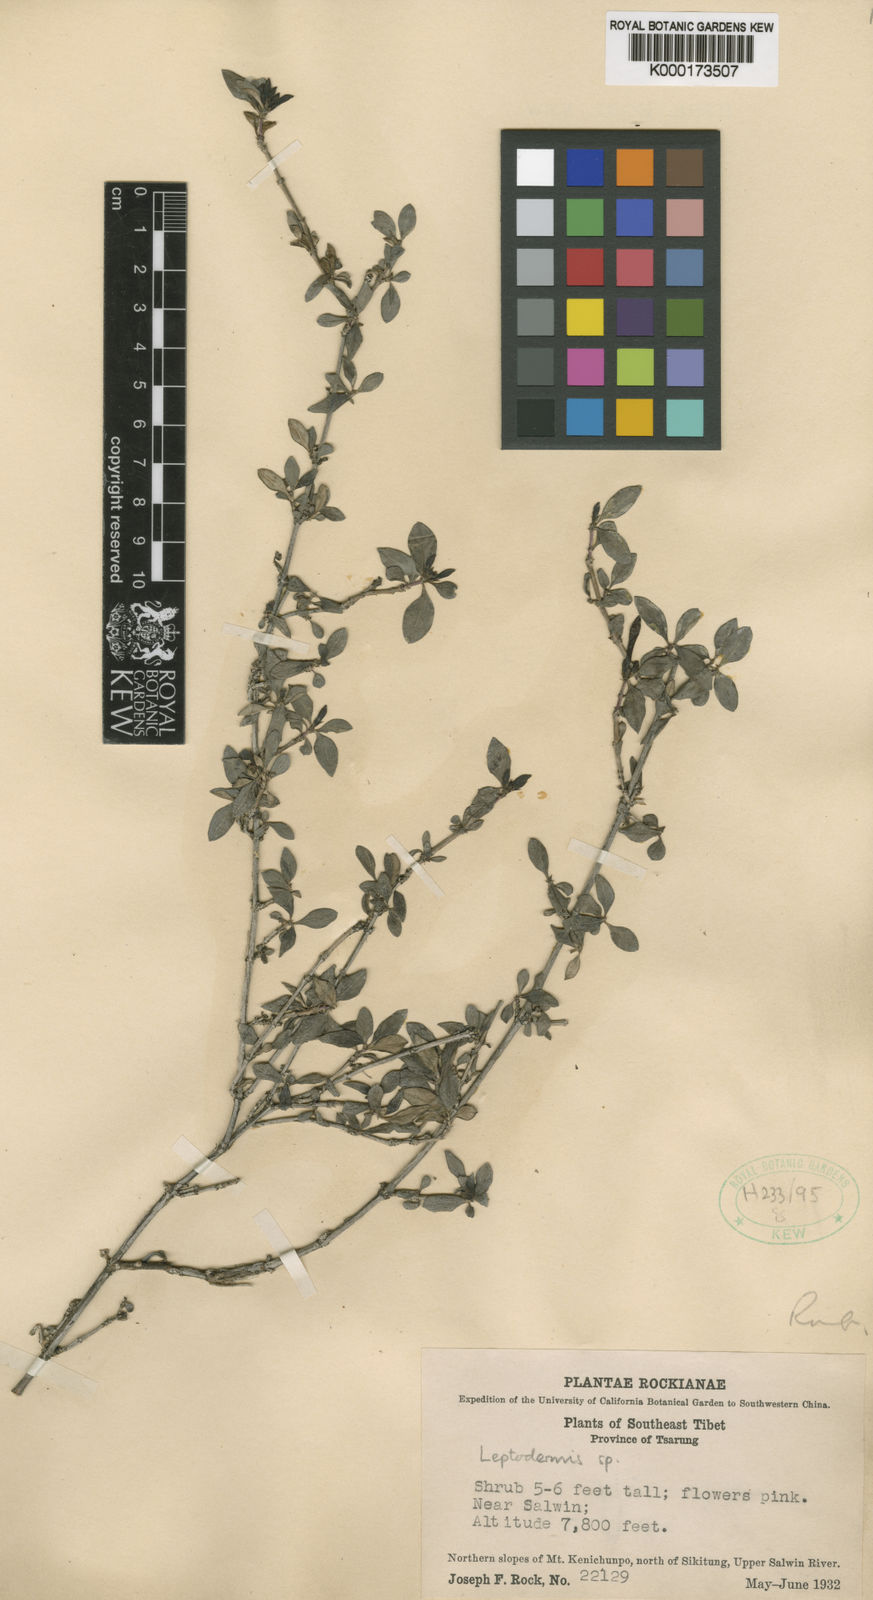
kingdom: Plantae
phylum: Tracheophyta
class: Magnoliopsida
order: Gentianales
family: Rubiaceae
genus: Leptodermis
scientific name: Leptodermis purdomii
